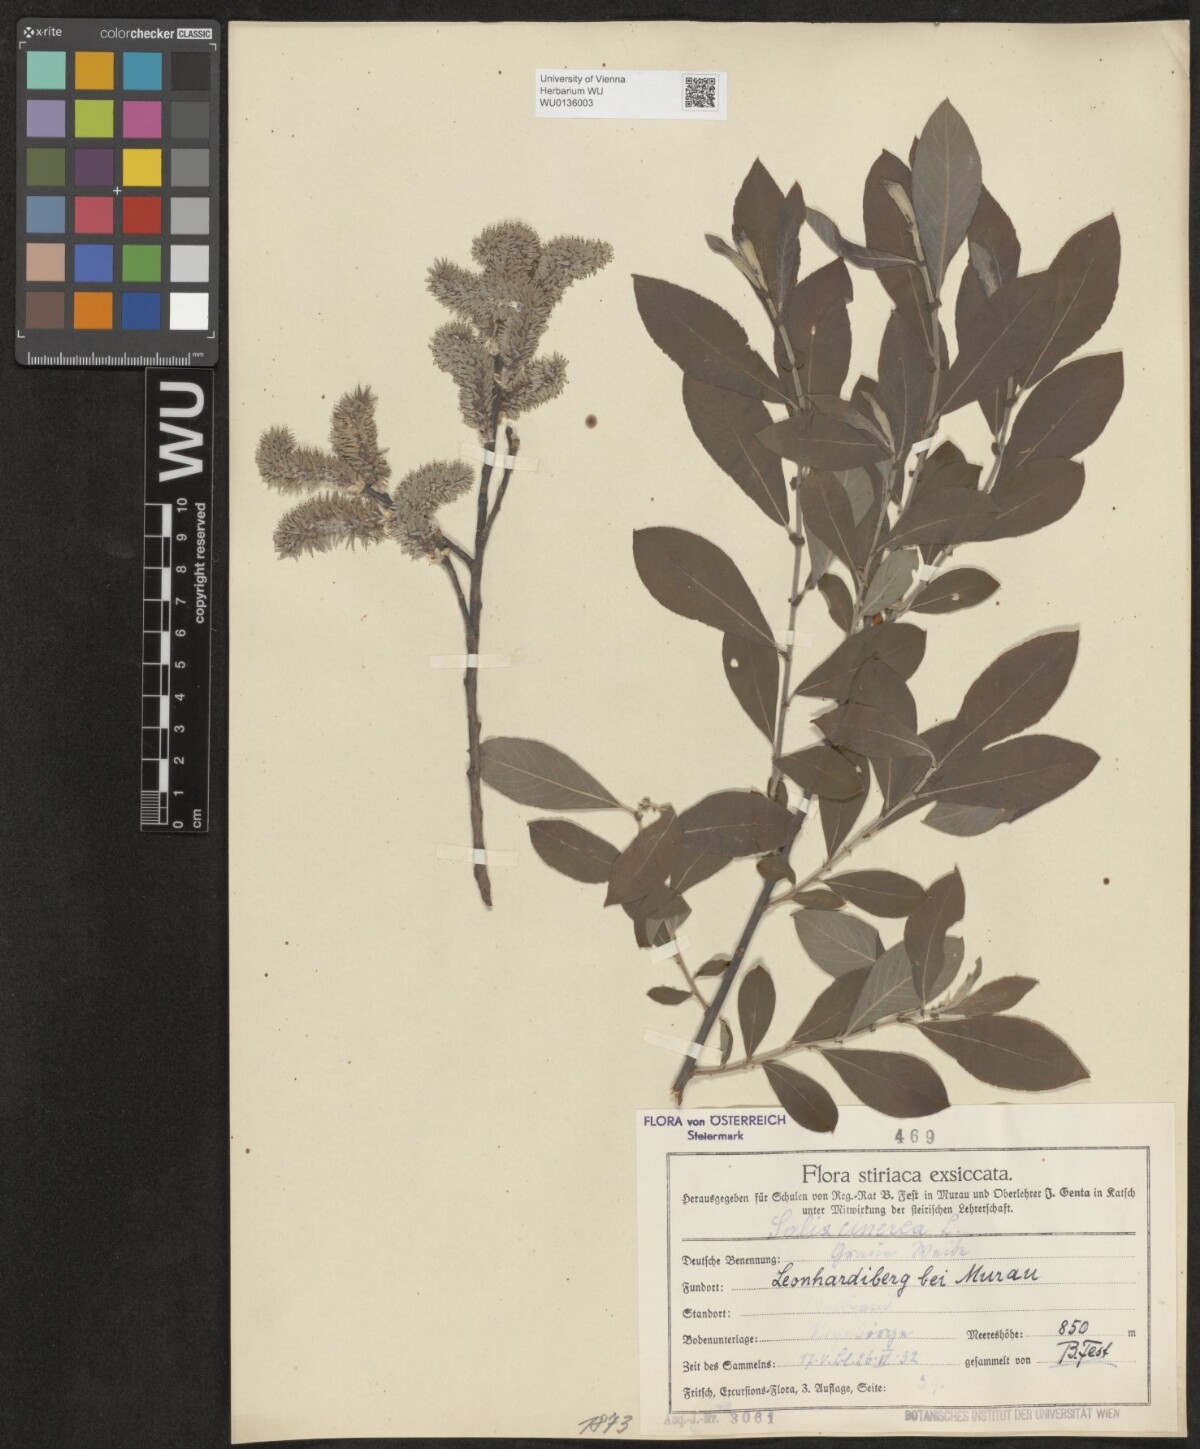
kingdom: Plantae
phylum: Tracheophyta
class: Magnoliopsida
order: Malpighiales
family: Salicaceae
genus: Salix
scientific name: Salix cinerea
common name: Common sallow
